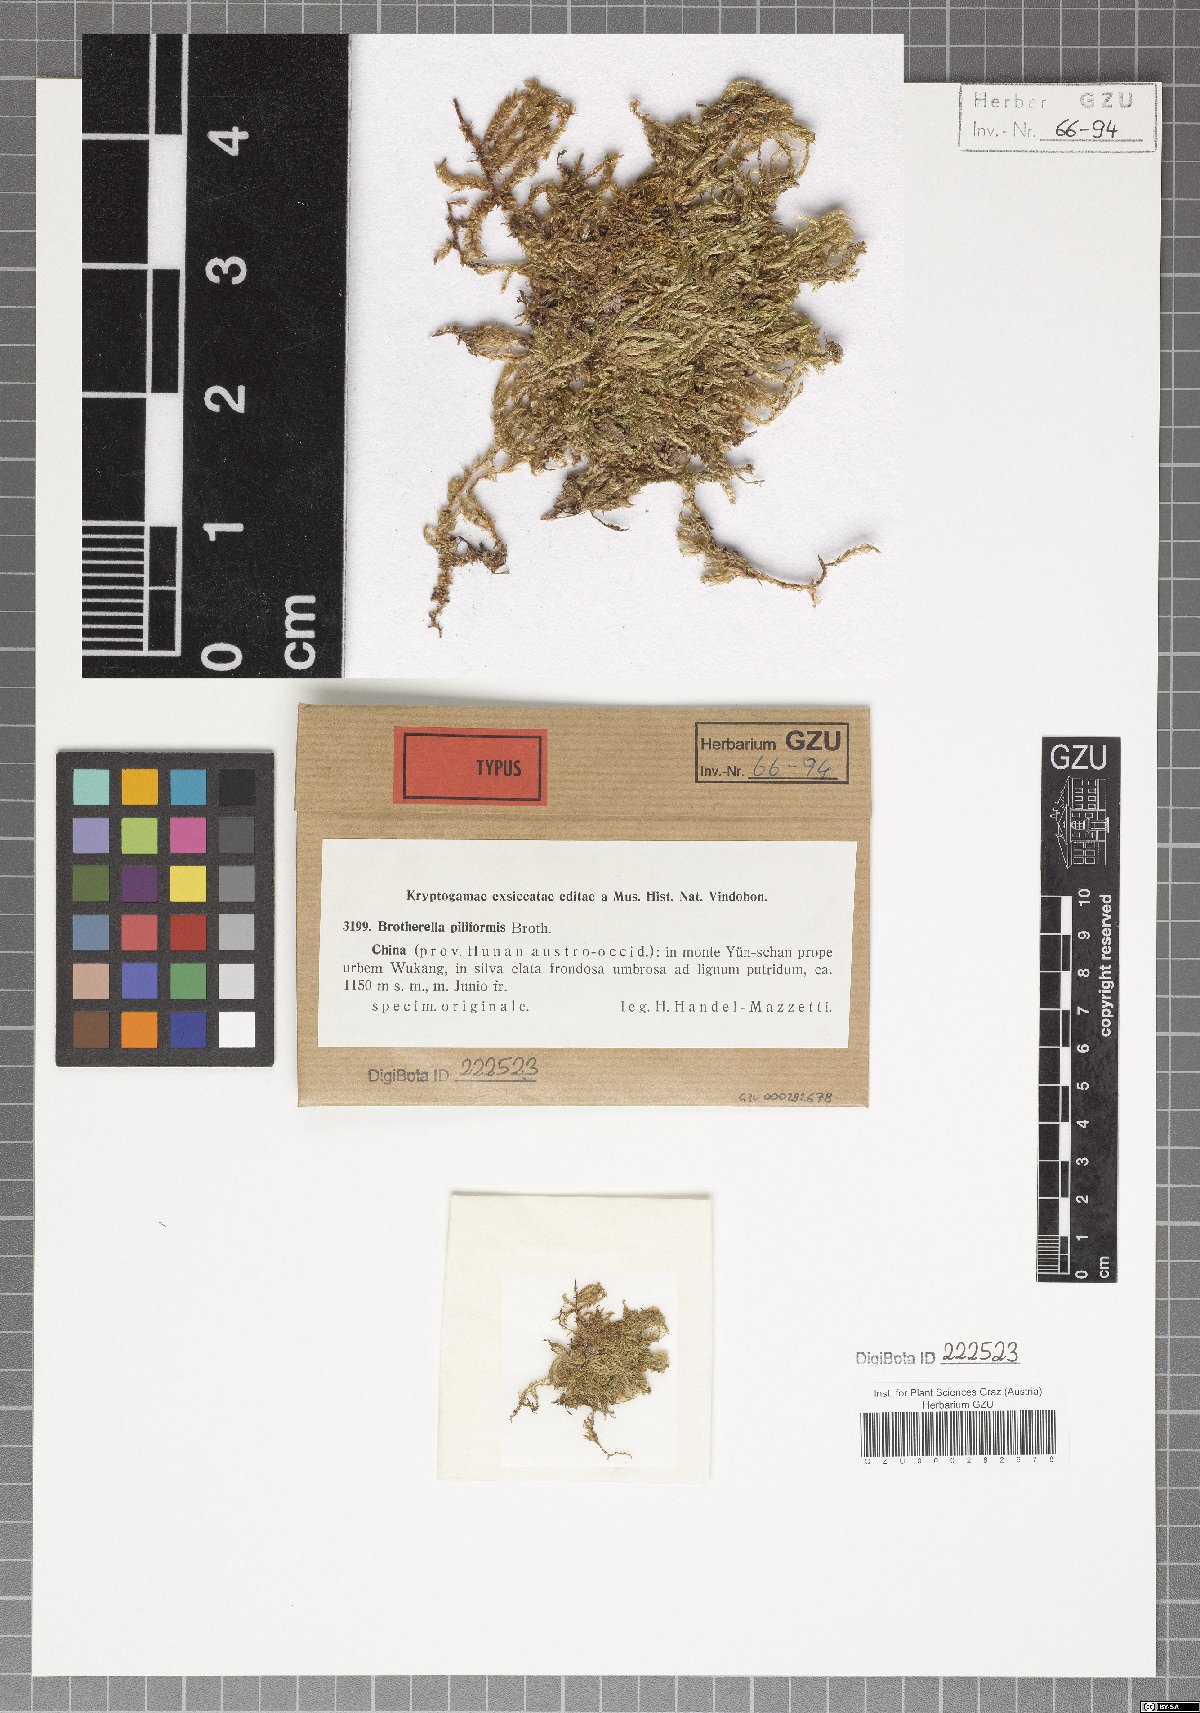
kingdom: Plantae
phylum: Bryophyta
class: Bryopsida
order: Hypnales
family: Pylaisiadelphaceae
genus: Wijkia
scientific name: Wijkia hornschuchii
